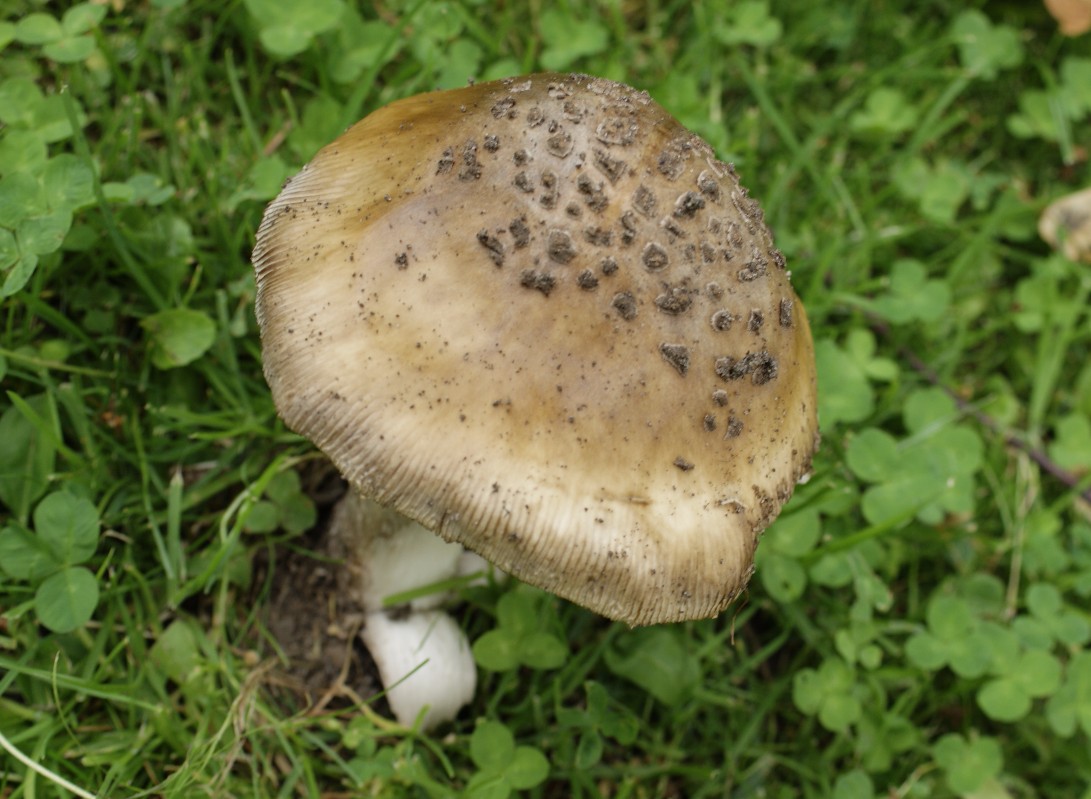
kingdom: Fungi
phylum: Basidiomycota
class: Agaricomycetes
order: Agaricales
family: Amanitaceae
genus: Amanita
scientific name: Amanita ceciliae
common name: stor kam-fluesvamp
